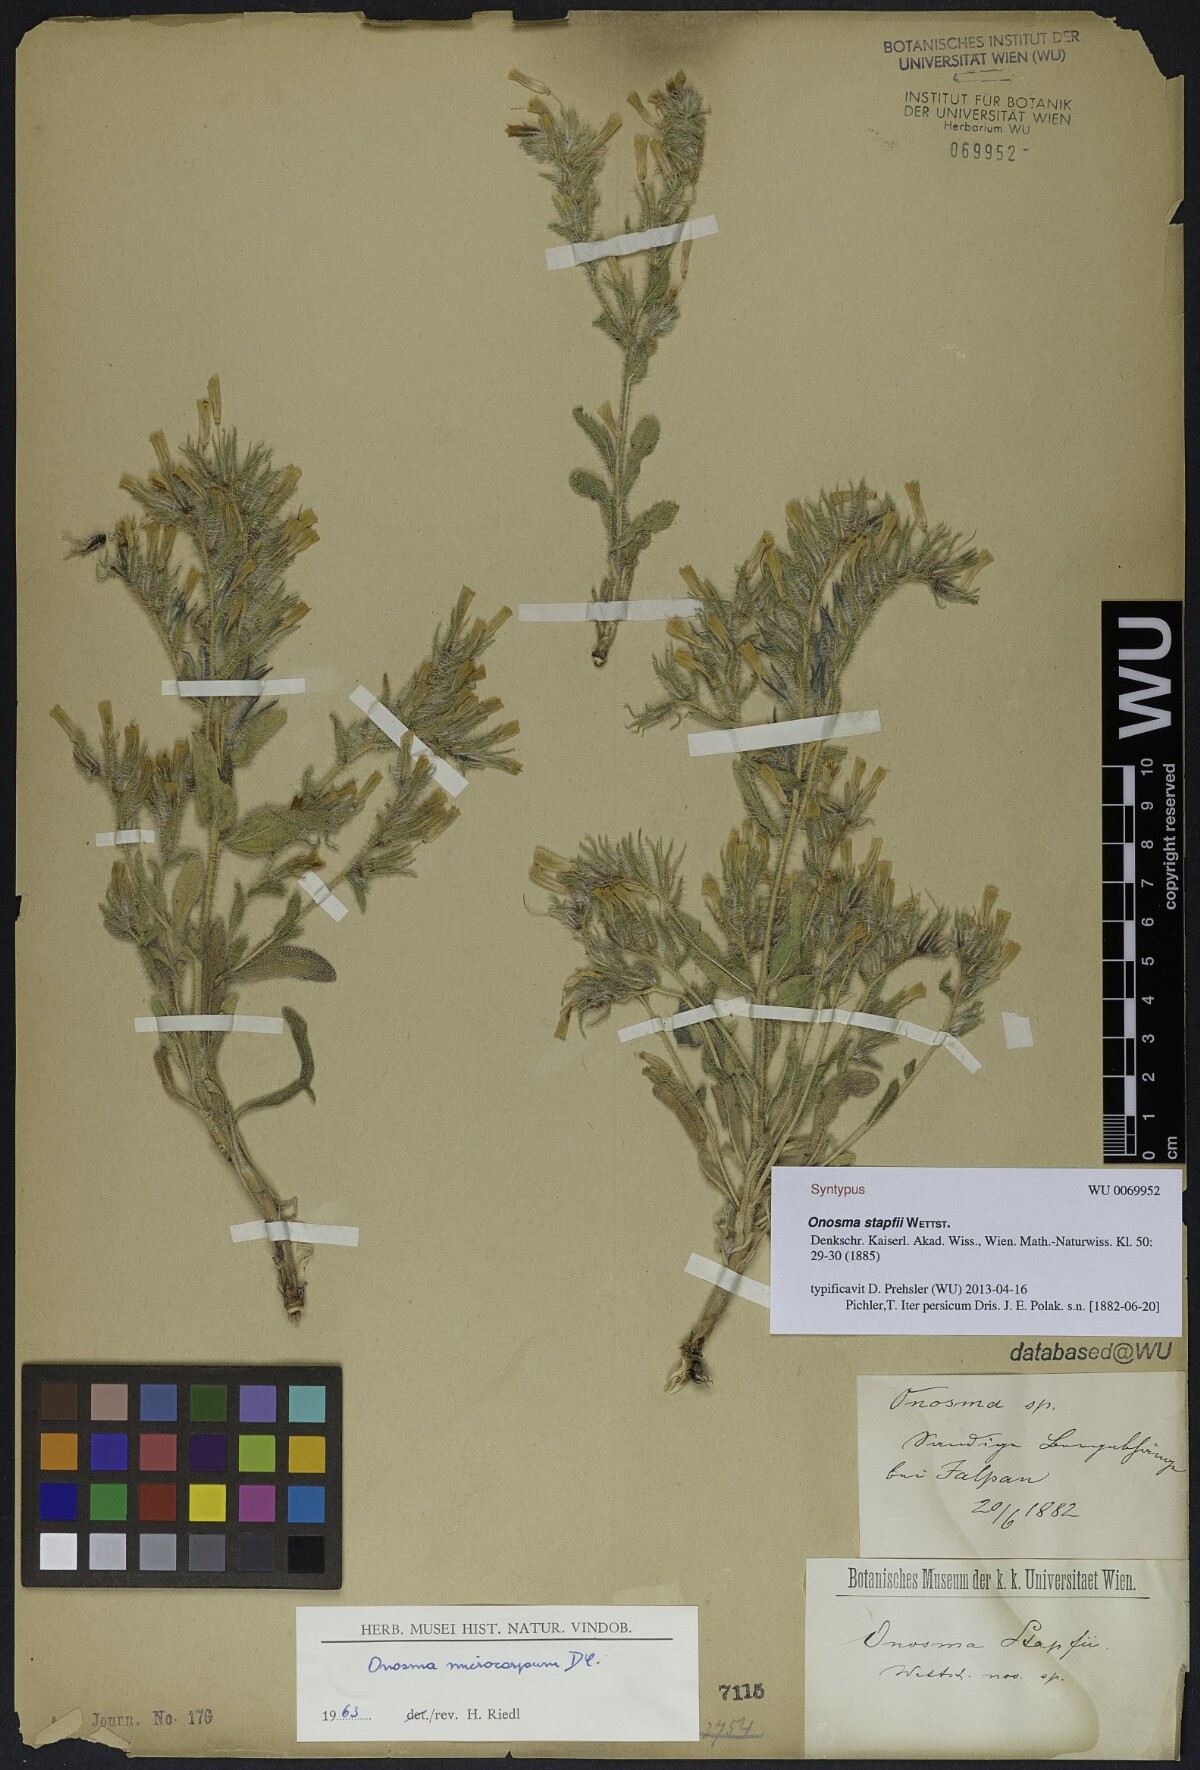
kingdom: Plantae
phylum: Tracheophyta
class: Magnoliopsida
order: Boraginales
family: Boraginaceae
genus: Onosma
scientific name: Onosma microcarpa
